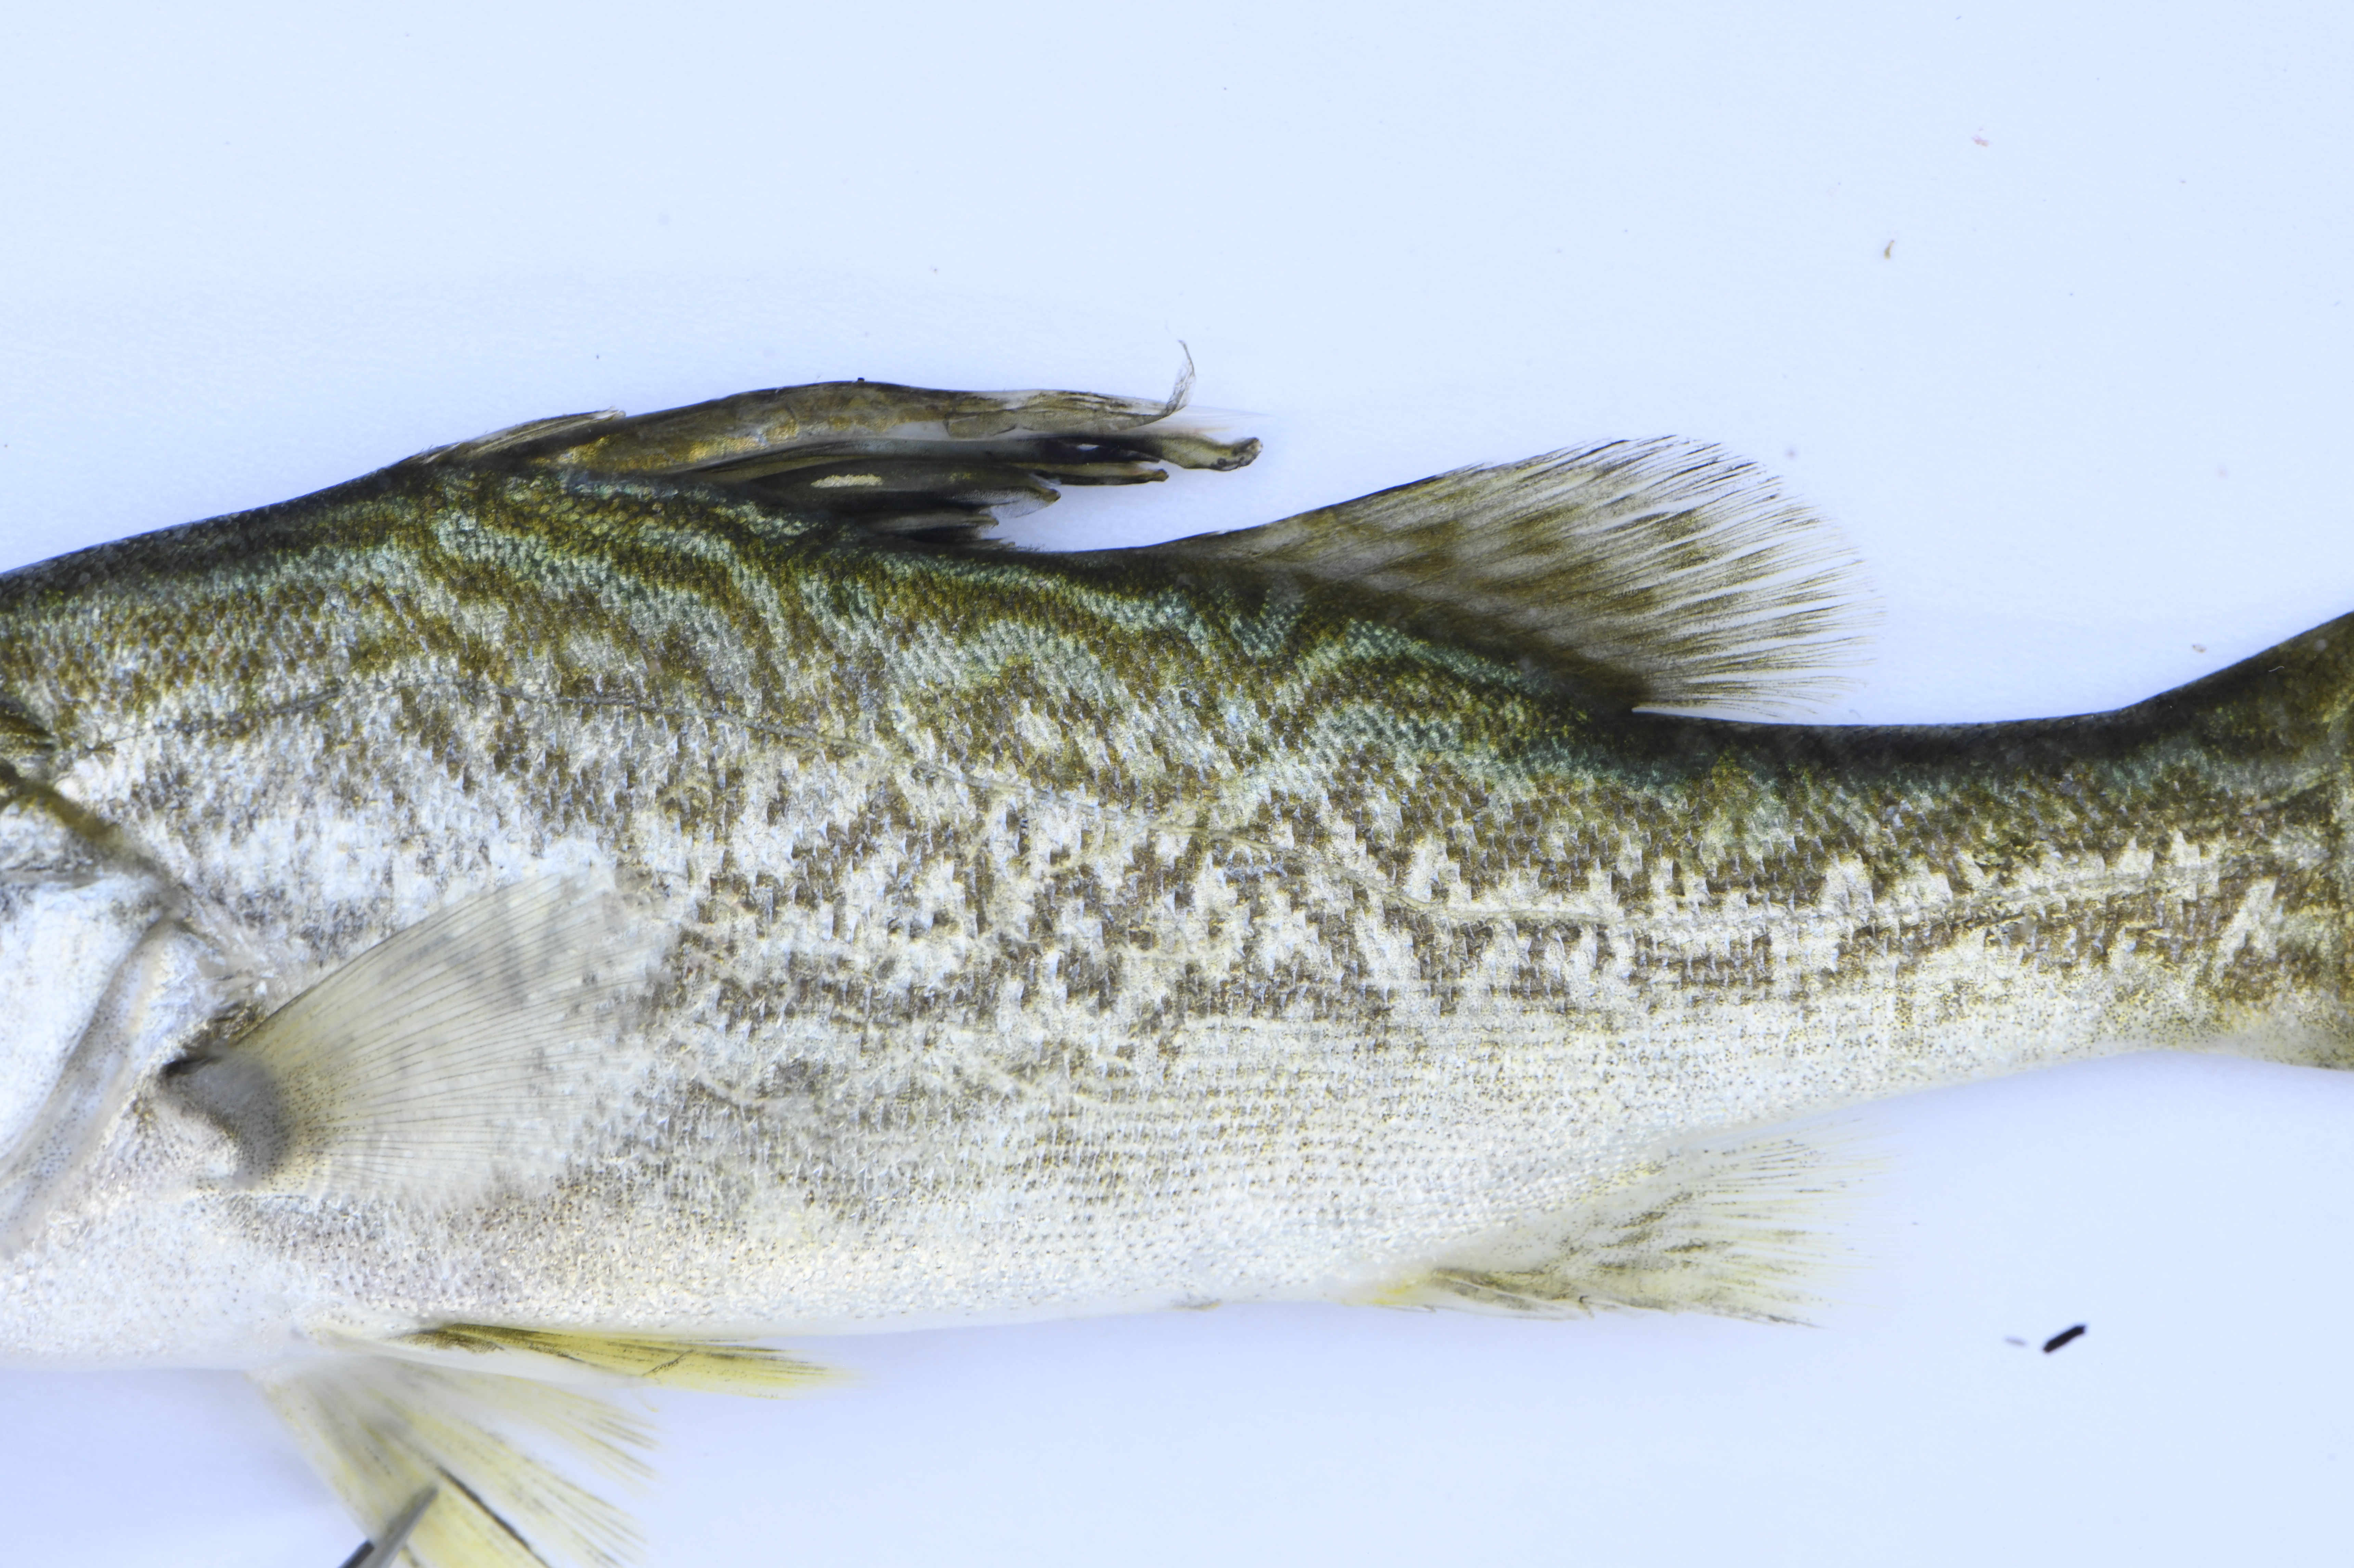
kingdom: Animalia
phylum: Chordata
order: Perciformes
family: Latidae
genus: Lates
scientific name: Lates
